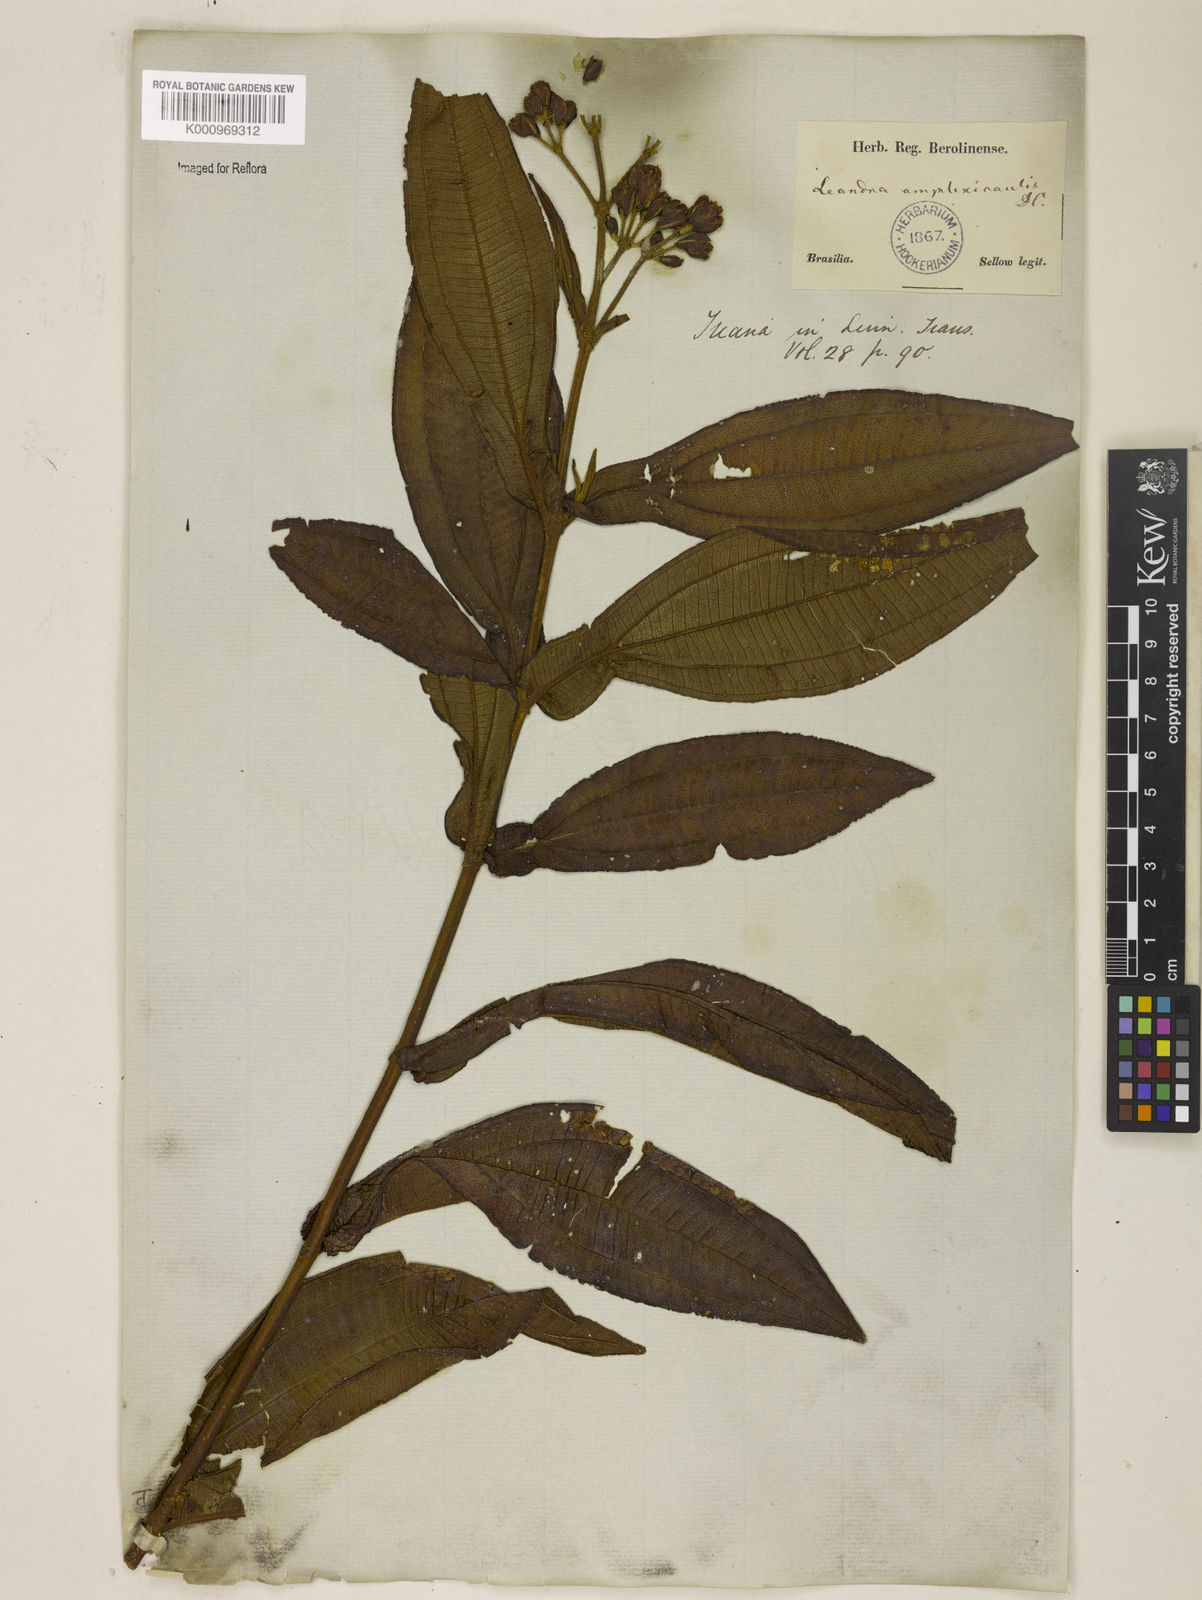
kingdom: Plantae
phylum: Tracheophyta
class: Magnoliopsida
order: Myrtales
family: Melastomataceae
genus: Miconia
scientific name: Miconia pectinata
